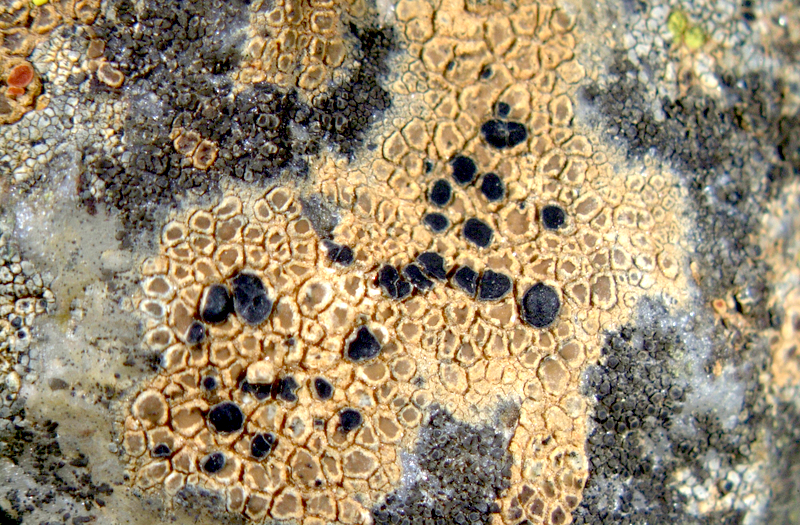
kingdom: Fungi
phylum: Ascomycota
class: Lecanoromycetes
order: Caliciales
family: Physciaceae
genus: Rinodina
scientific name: Rinodina
